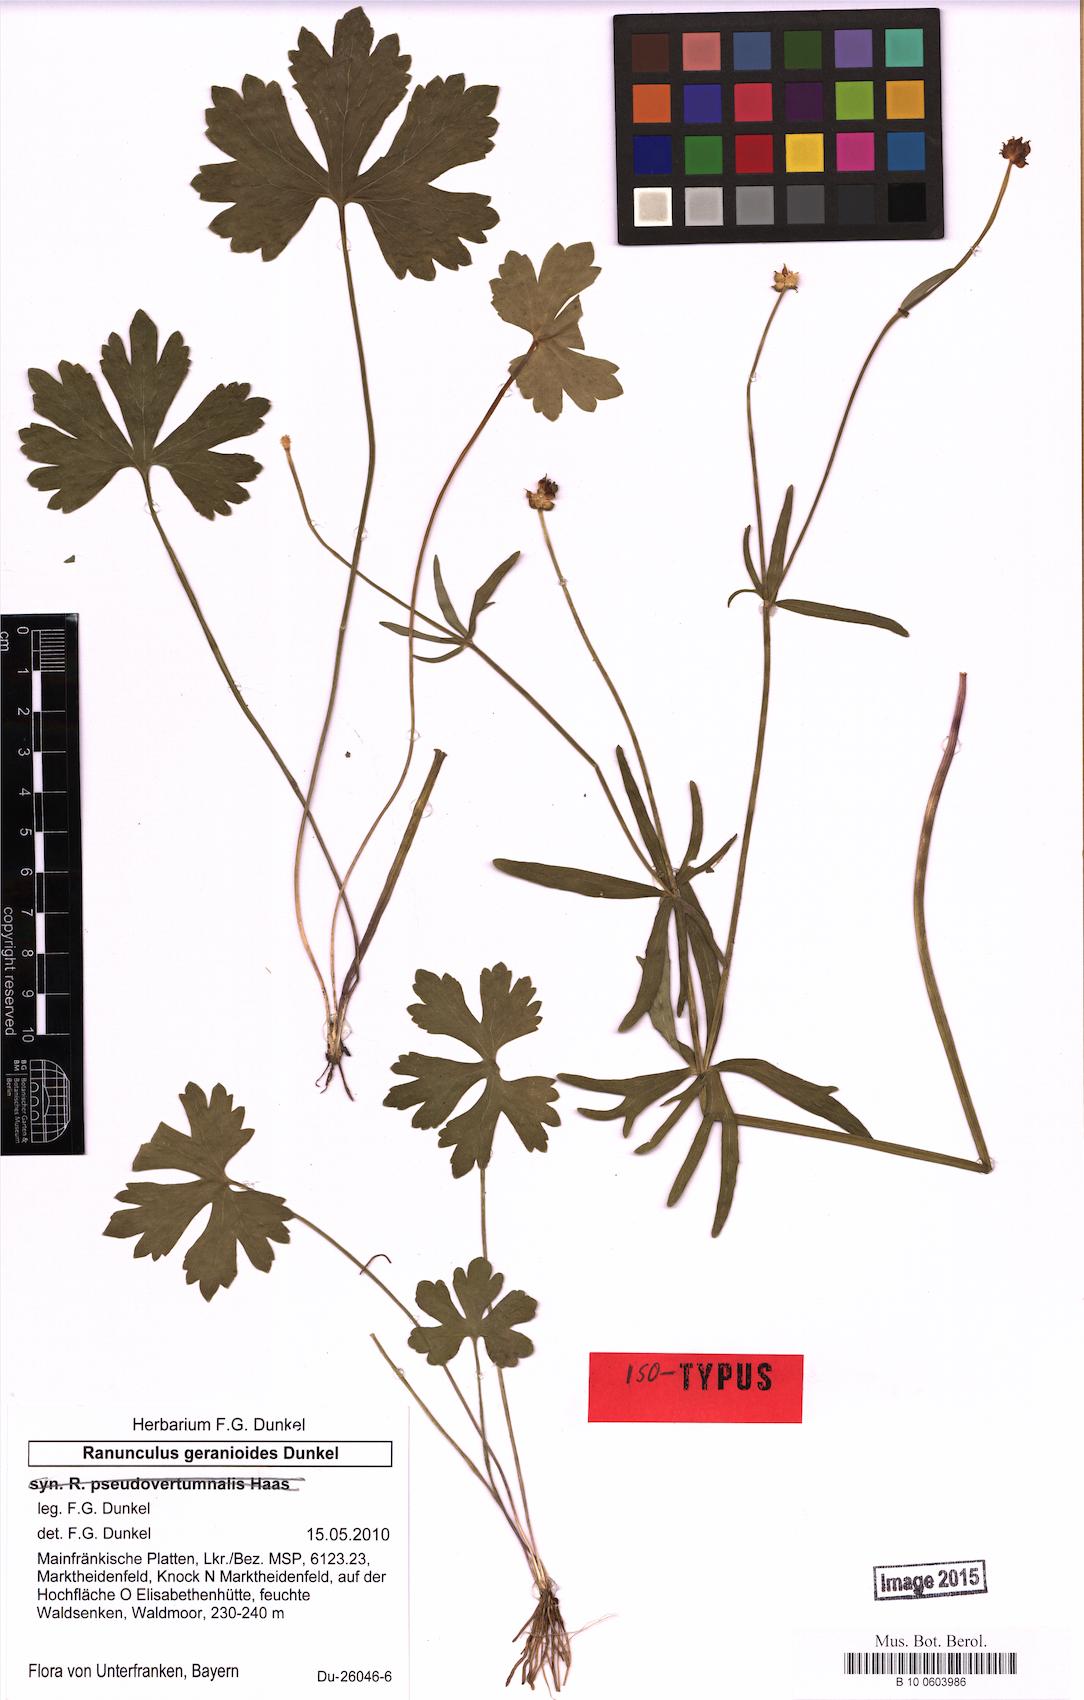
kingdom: Plantae
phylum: Tracheophyta
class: Magnoliopsida
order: Ranunculales
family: Ranunculaceae
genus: Ranunculus
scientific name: Ranunculus geraniiformis
